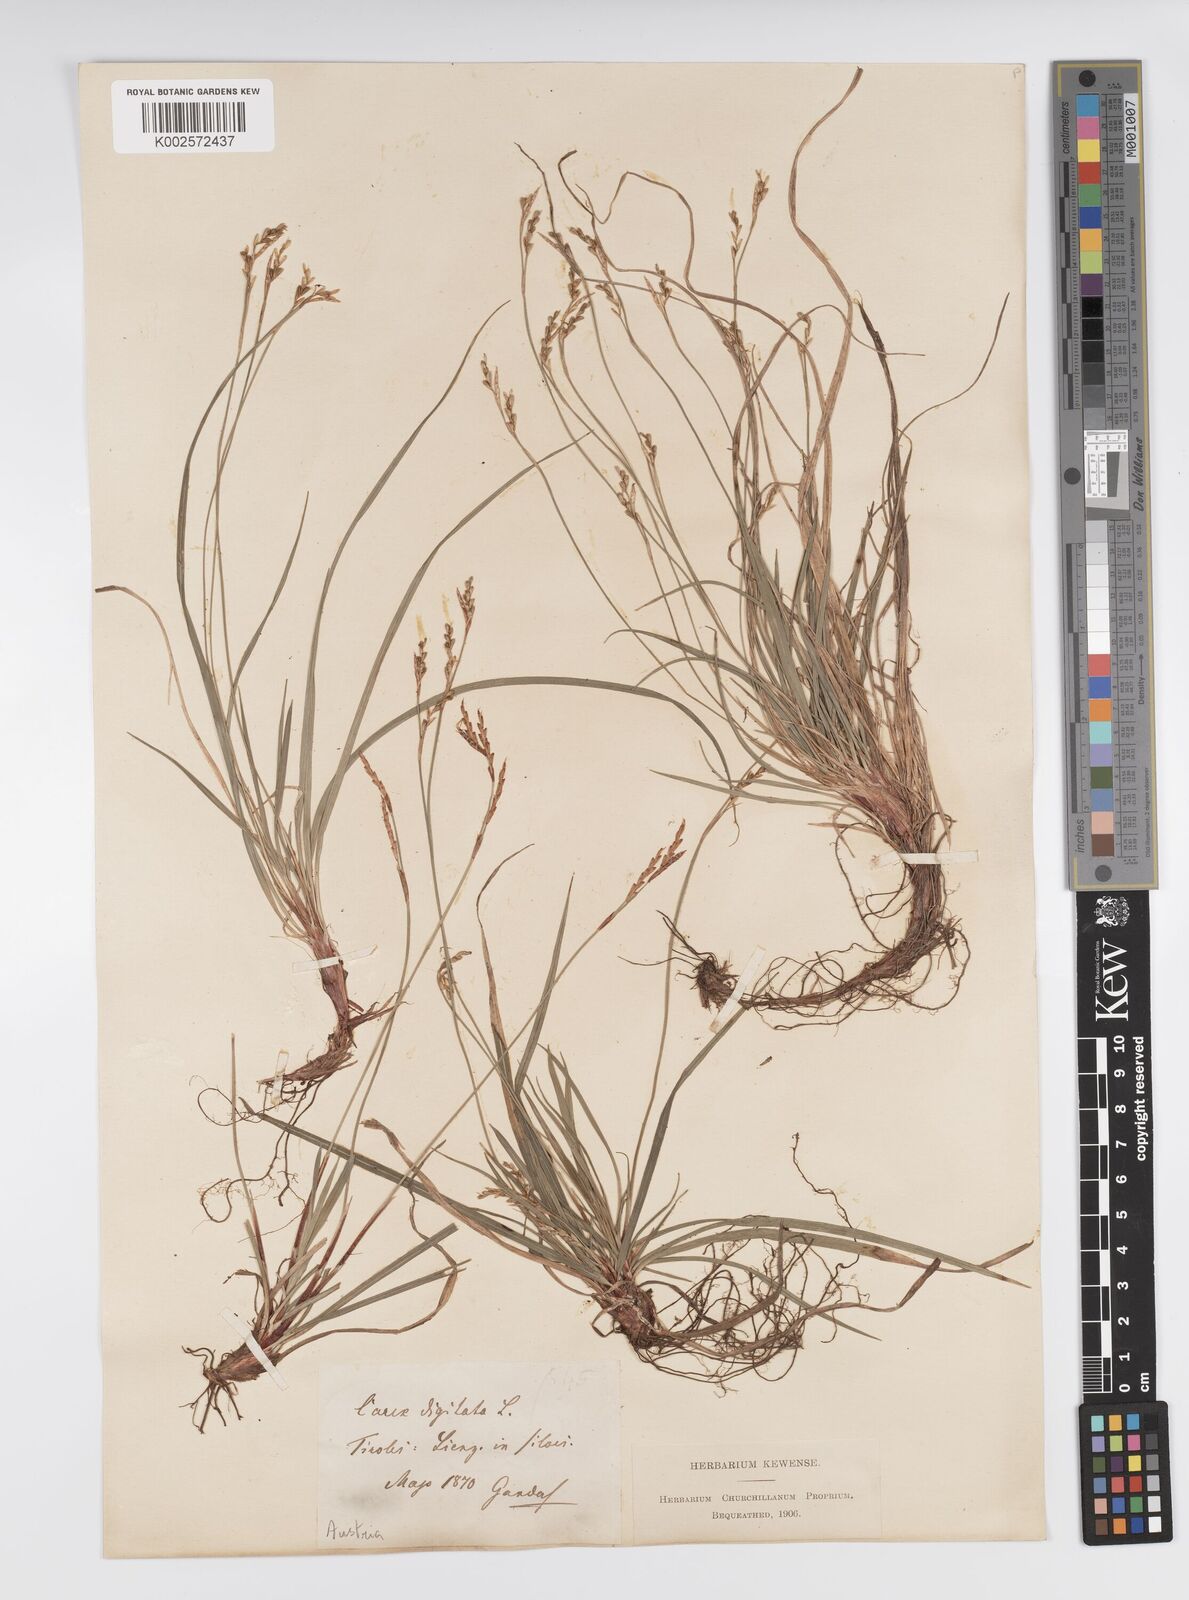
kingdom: Plantae
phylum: Tracheophyta
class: Liliopsida
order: Poales
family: Cyperaceae
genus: Carex
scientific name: Carex digitata
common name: Fingered sedge
